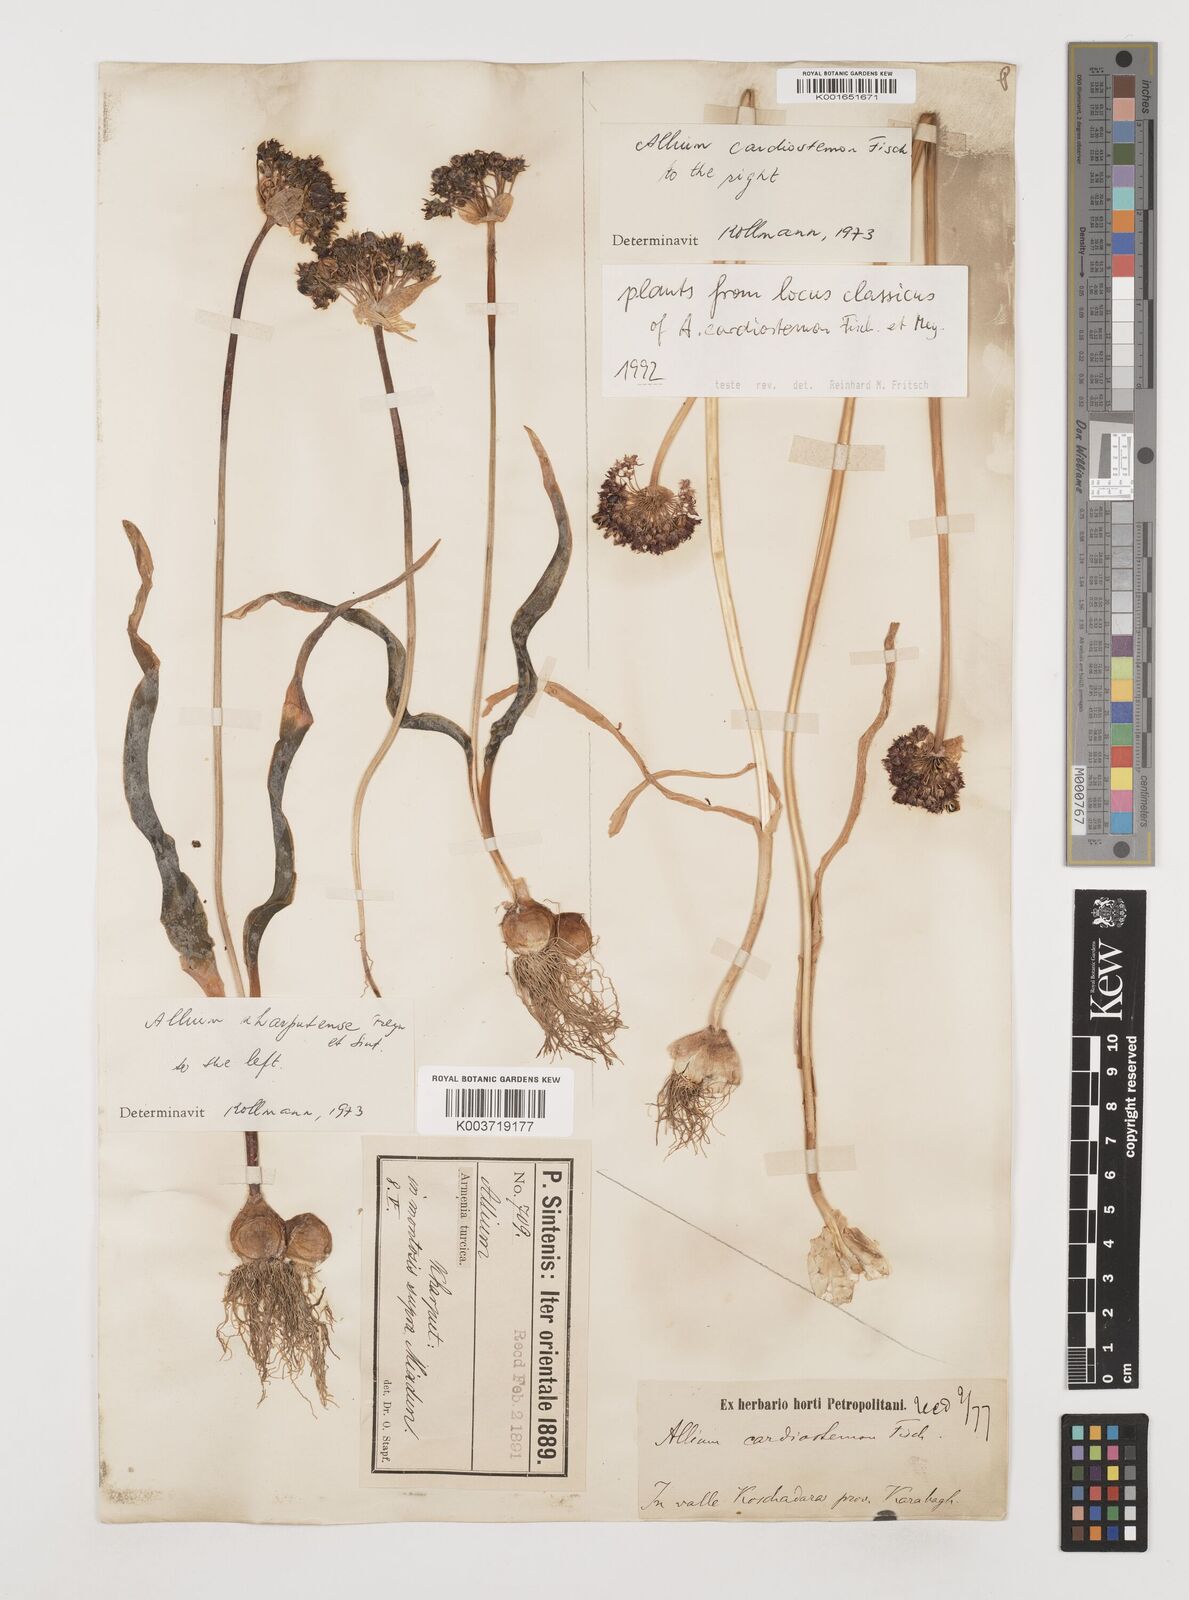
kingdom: Plantae
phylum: Tracheophyta
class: Liliopsida
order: Asparagales
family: Amaryllidaceae
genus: Allium
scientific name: Allium cardiostemon
